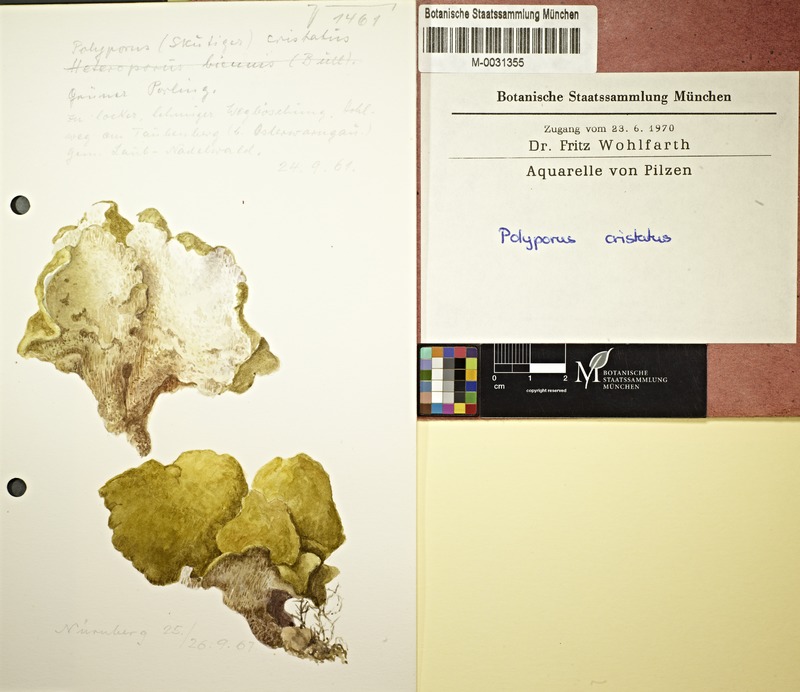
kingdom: Fungi
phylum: Basidiomycota
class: Agaricomycetes
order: Russulales
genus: Laeticutis
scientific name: Laeticutis cristata
